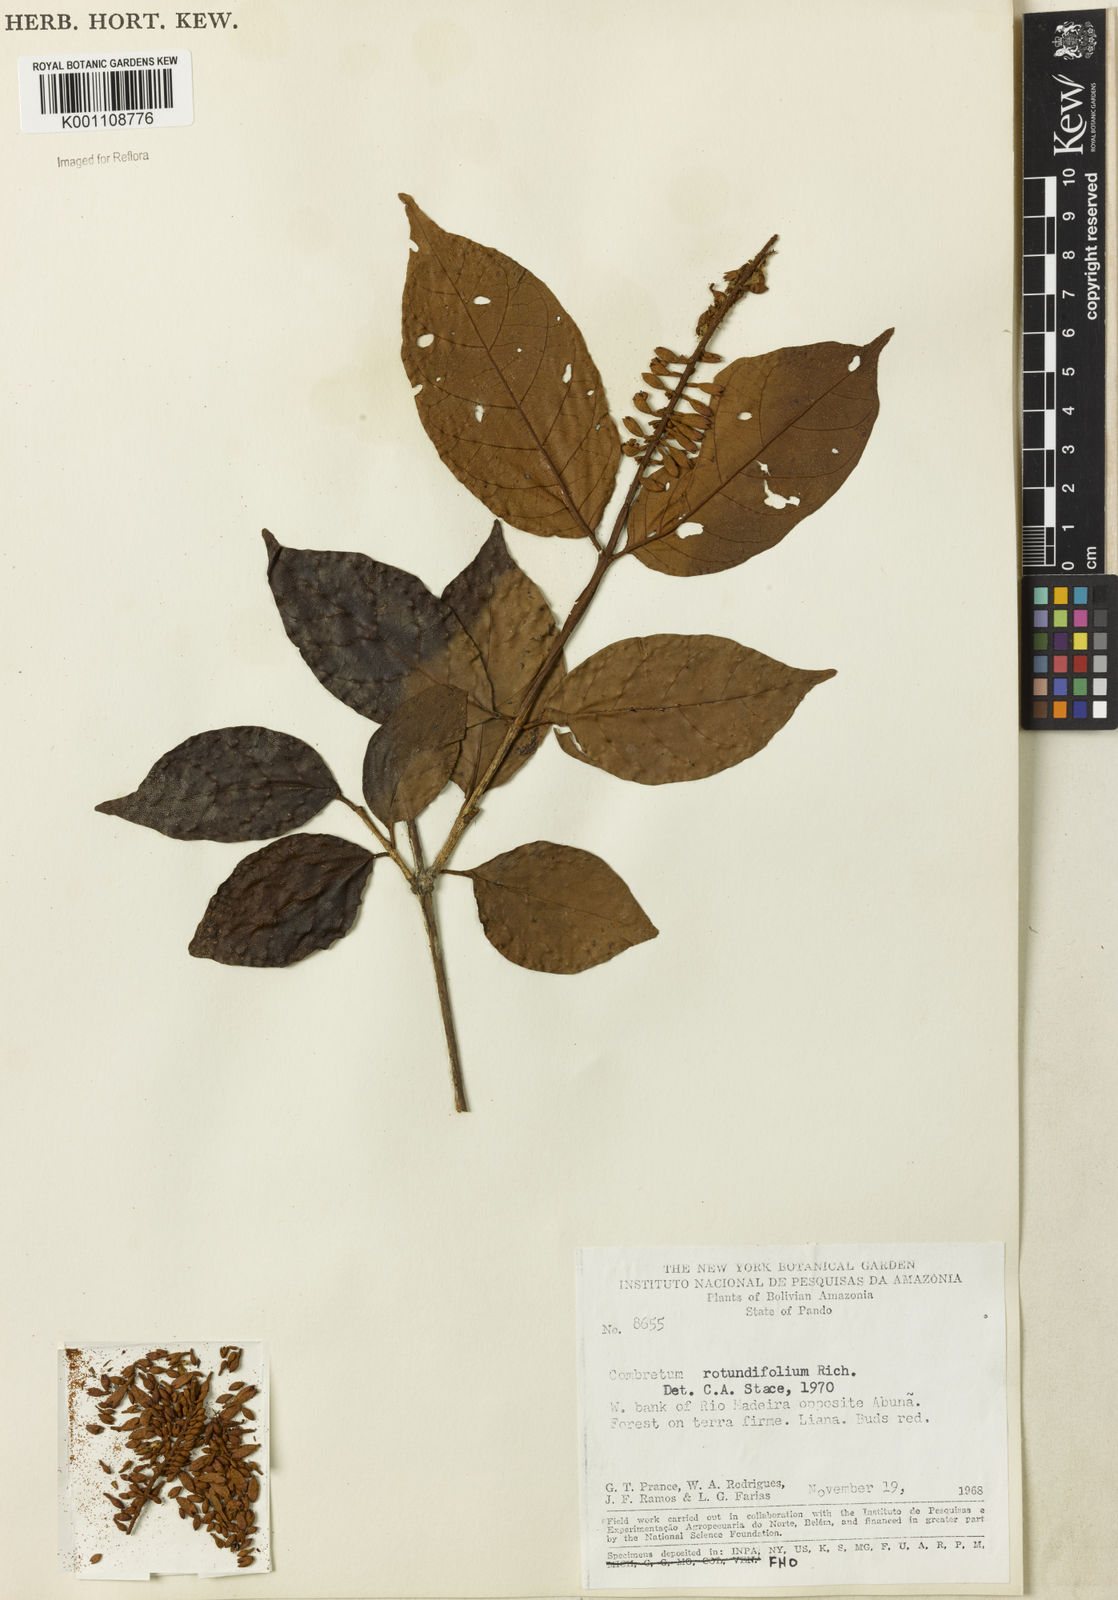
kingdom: Plantae
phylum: Tracheophyta
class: Magnoliopsida
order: Myrtales
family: Combretaceae
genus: Combretum
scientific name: Combretum rotundifolium
